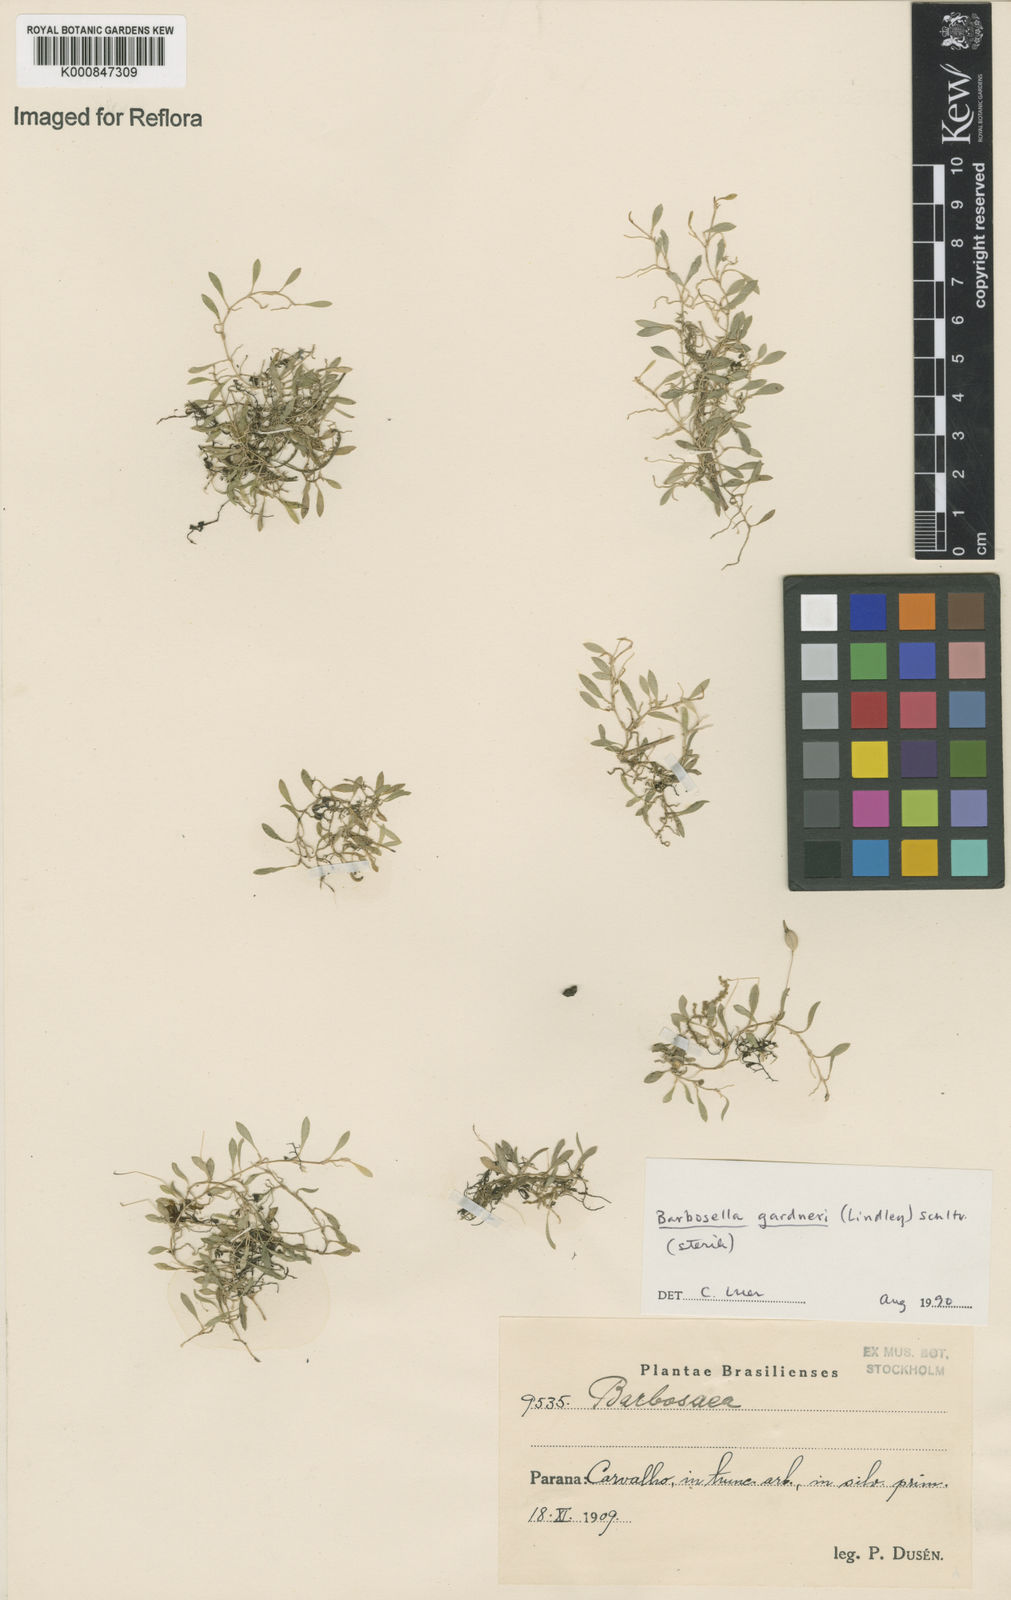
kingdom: Plantae
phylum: Tracheophyta
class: Liliopsida
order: Asparagales
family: Orchidaceae
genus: Barbosella
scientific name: Barbosella gardneri
